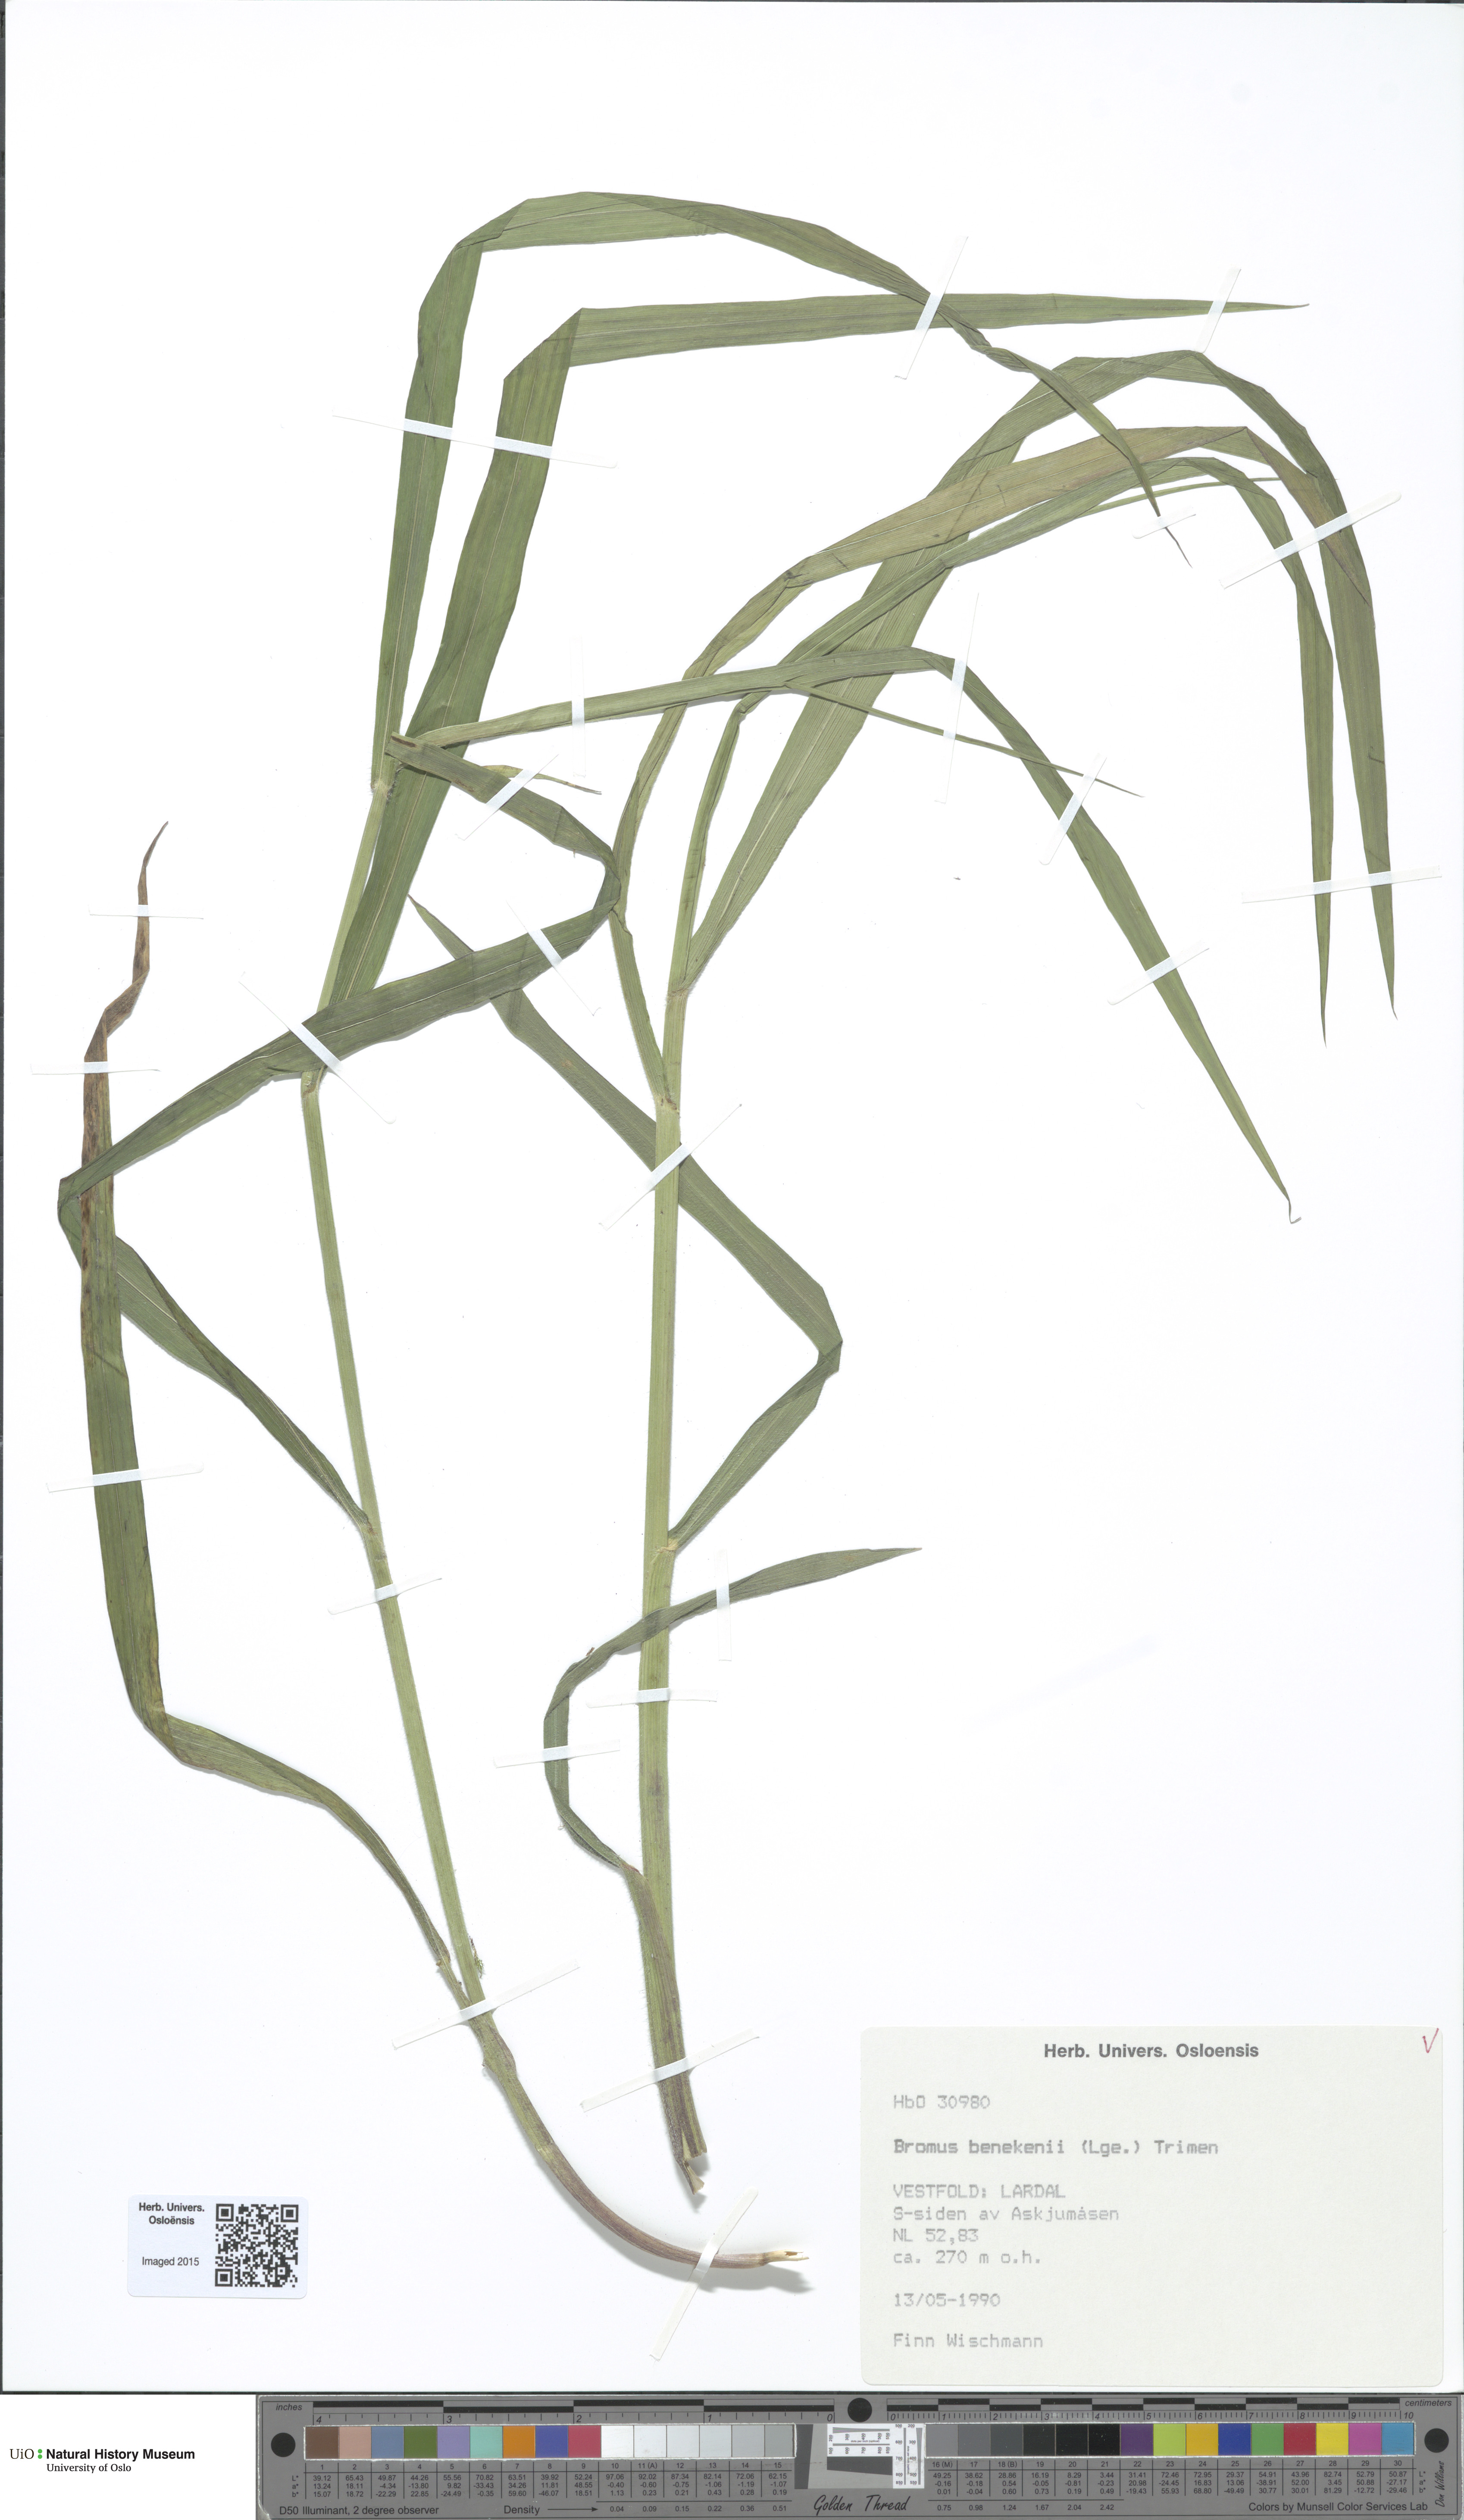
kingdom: Plantae
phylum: Tracheophyta
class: Liliopsida
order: Poales
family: Poaceae
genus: Bromus
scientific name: Bromus benekenii
